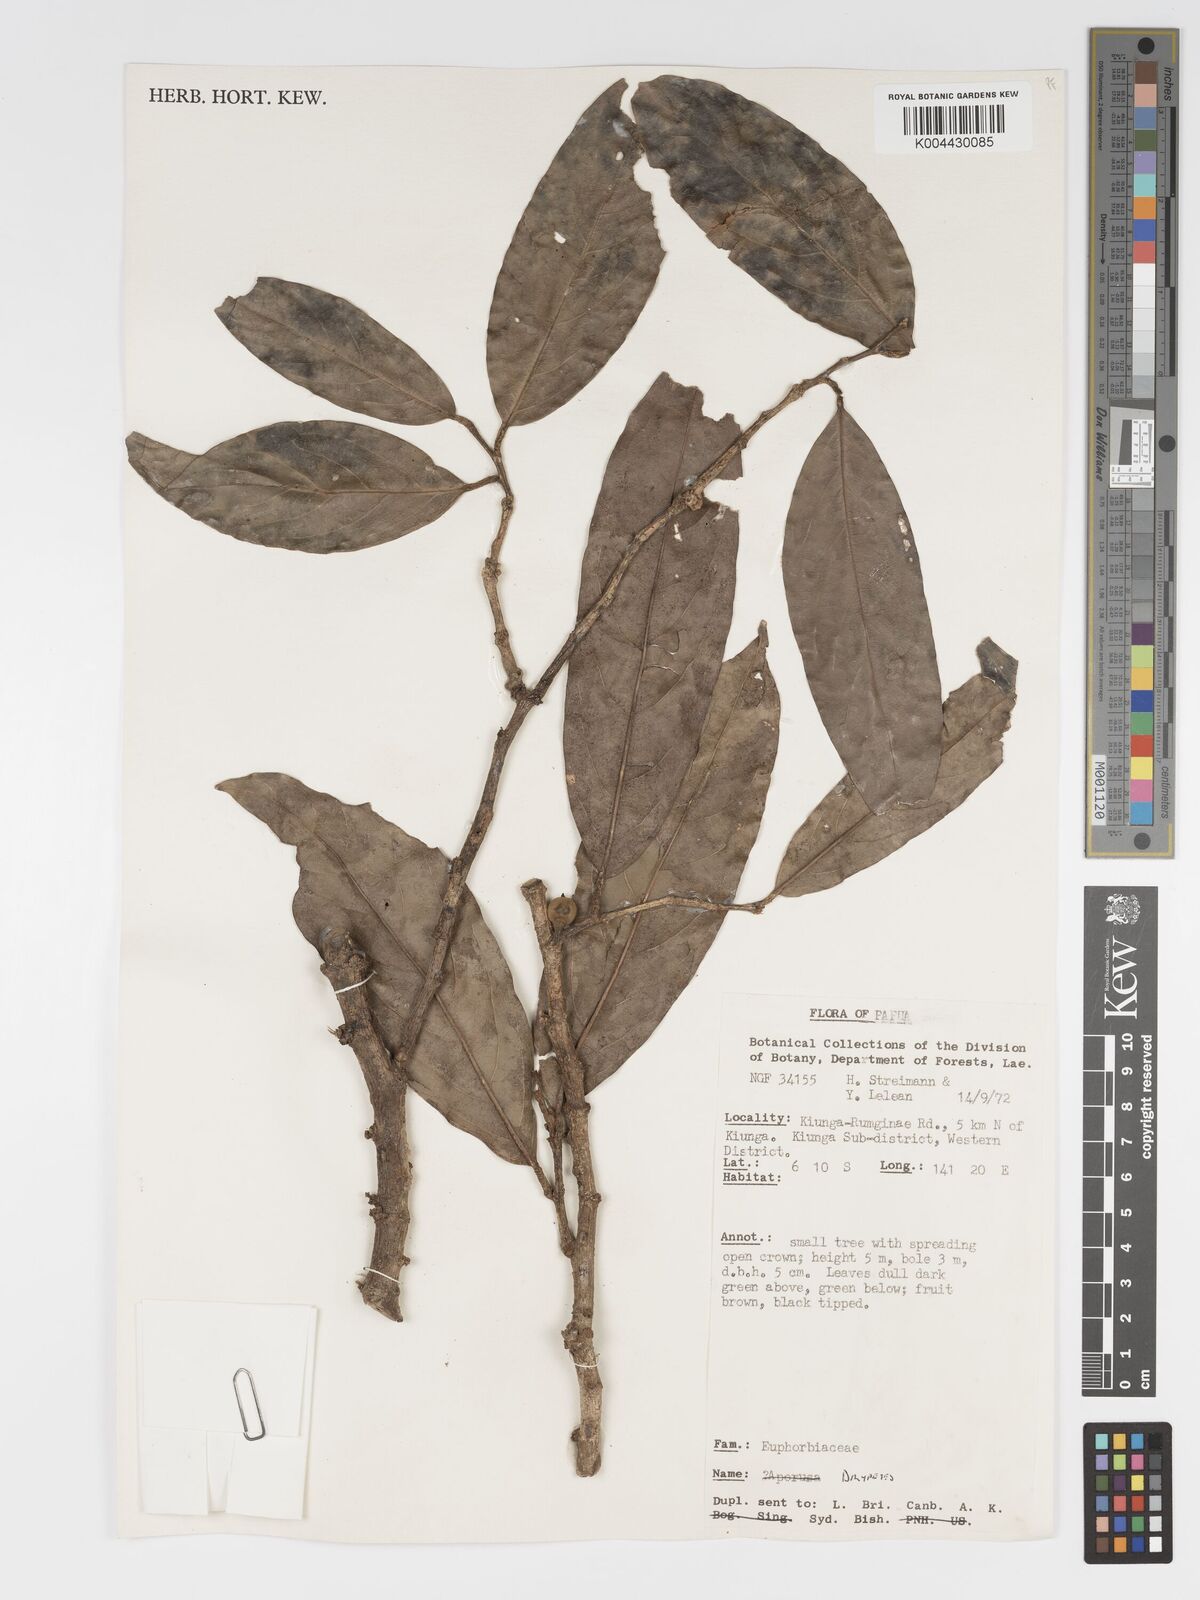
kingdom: Plantae
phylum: Tracheophyta
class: Magnoliopsida
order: Malpighiales
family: Putranjivaceae
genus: Drypetes
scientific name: Drypetes
